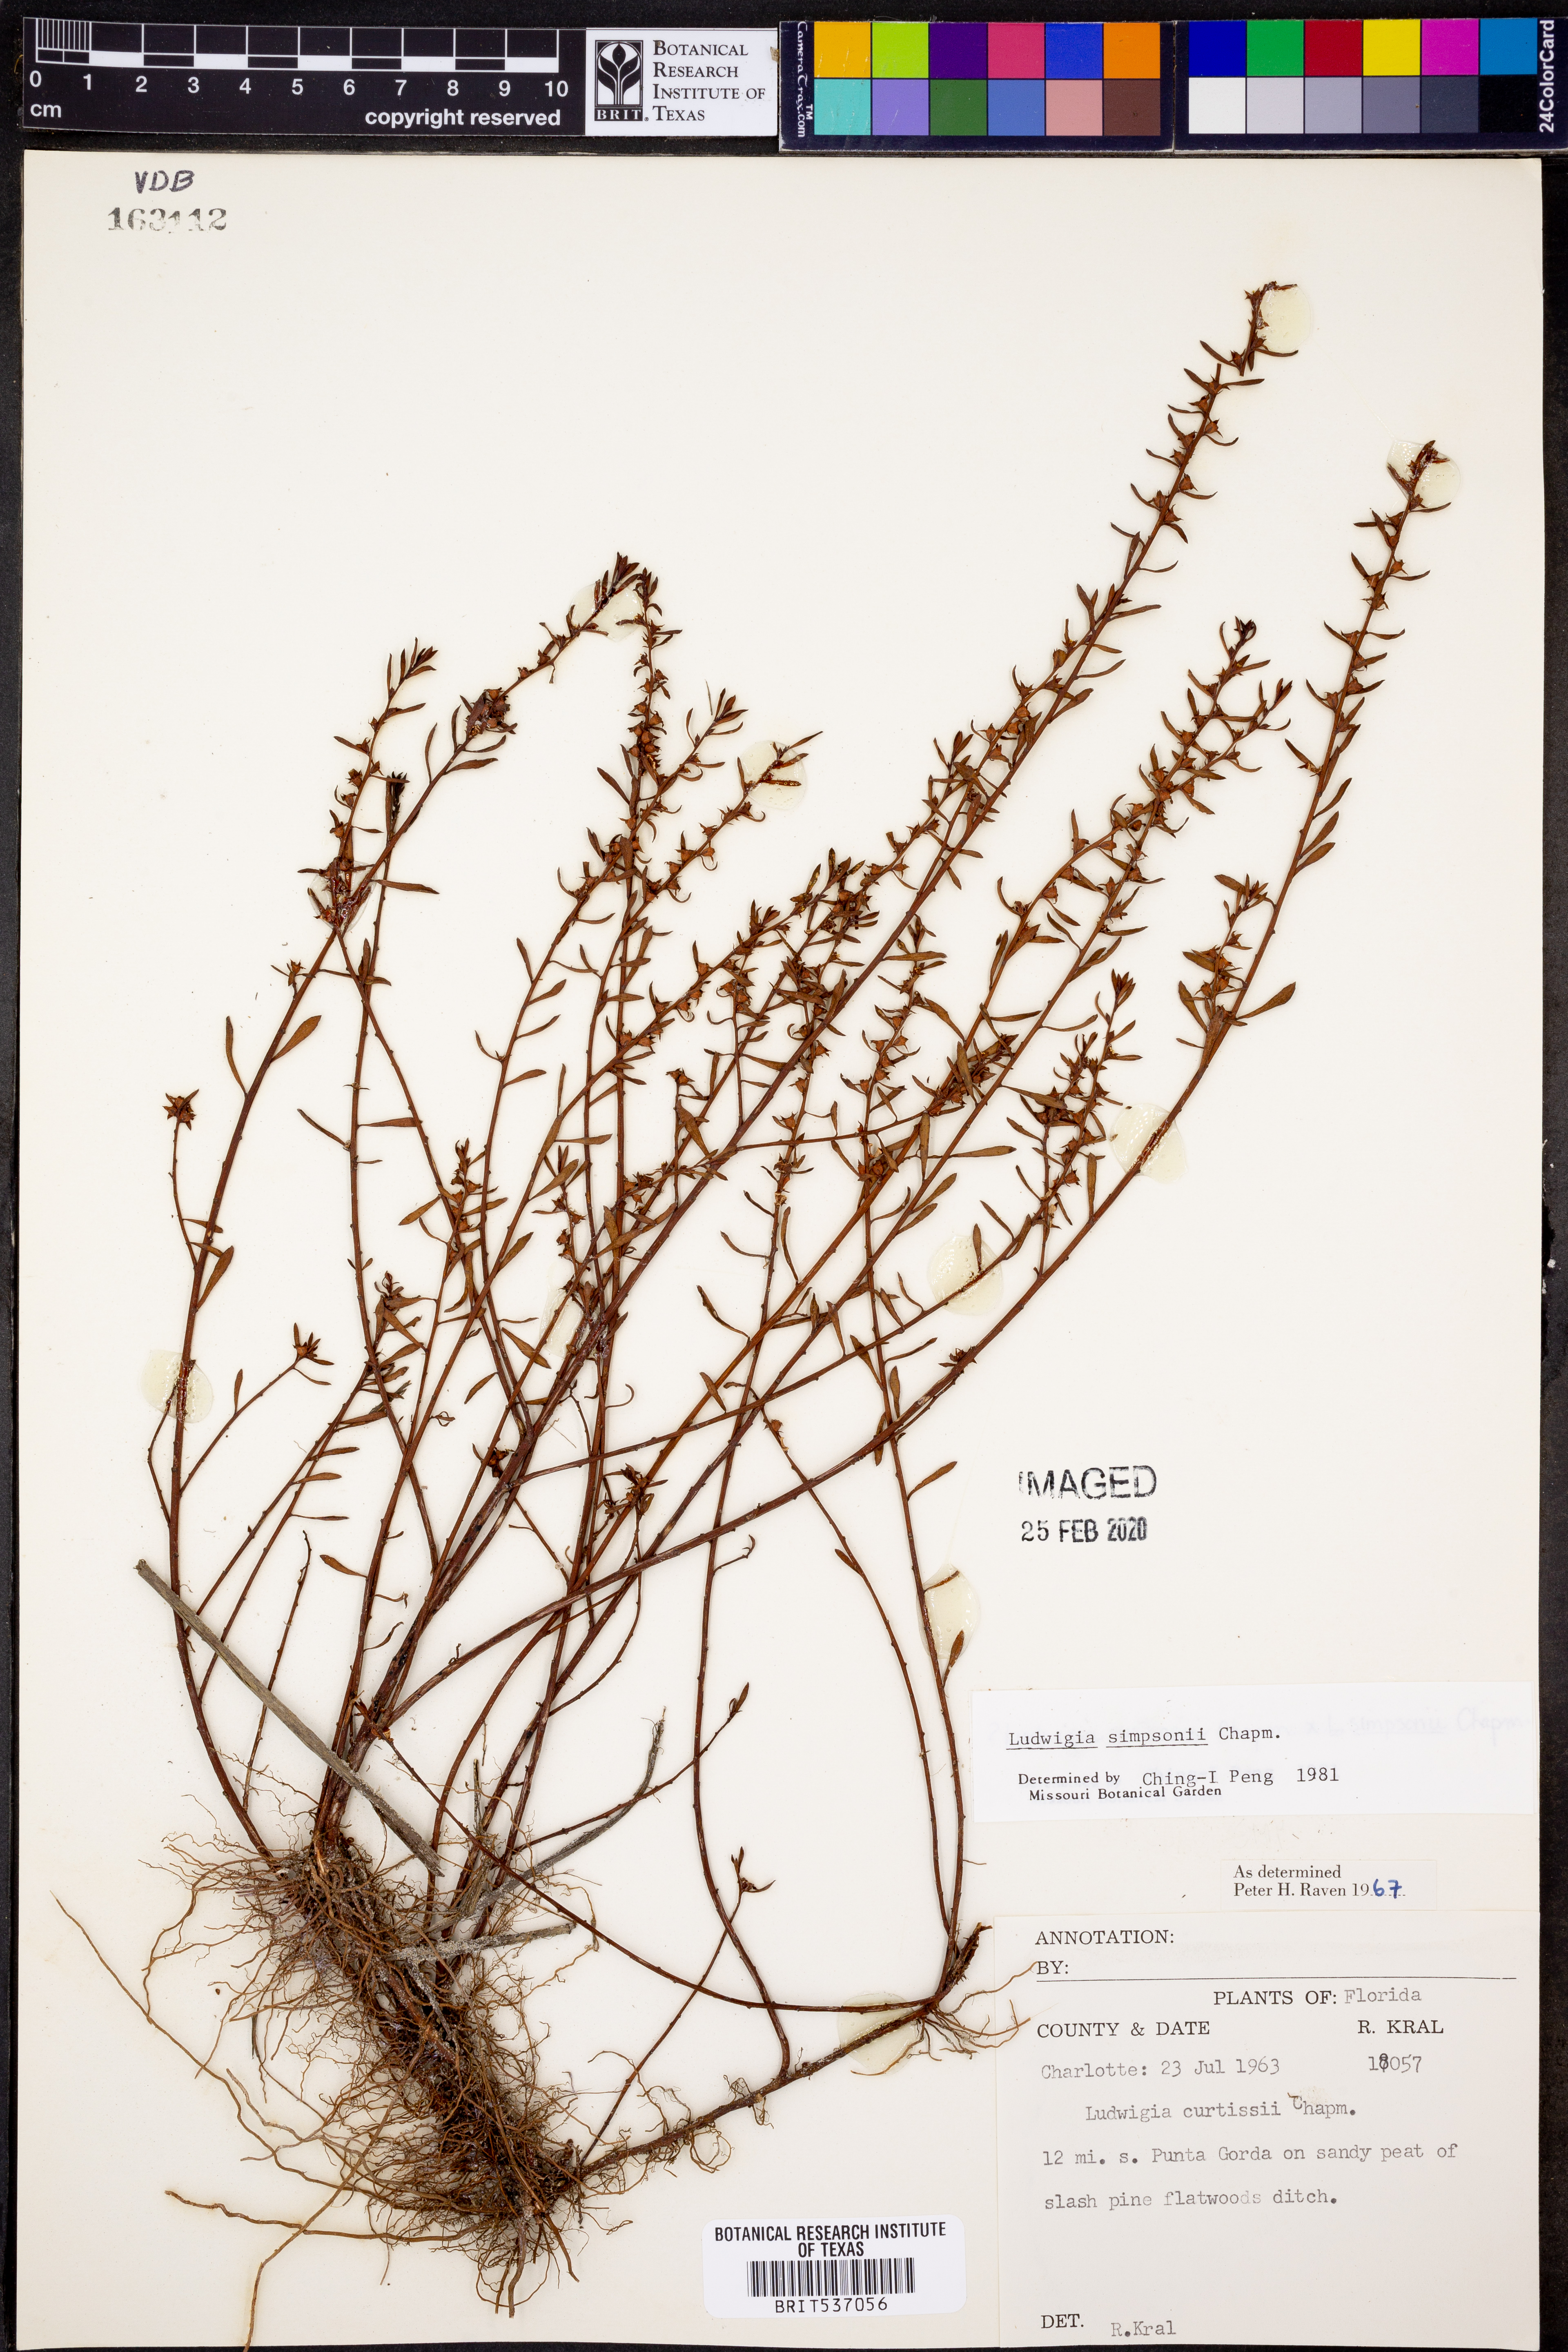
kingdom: Plantae
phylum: Tracheophyta
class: Magnoliopsida
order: Myrtales
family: Onagraceae
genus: Ludwigia
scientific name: Ludwigia simpsonii
